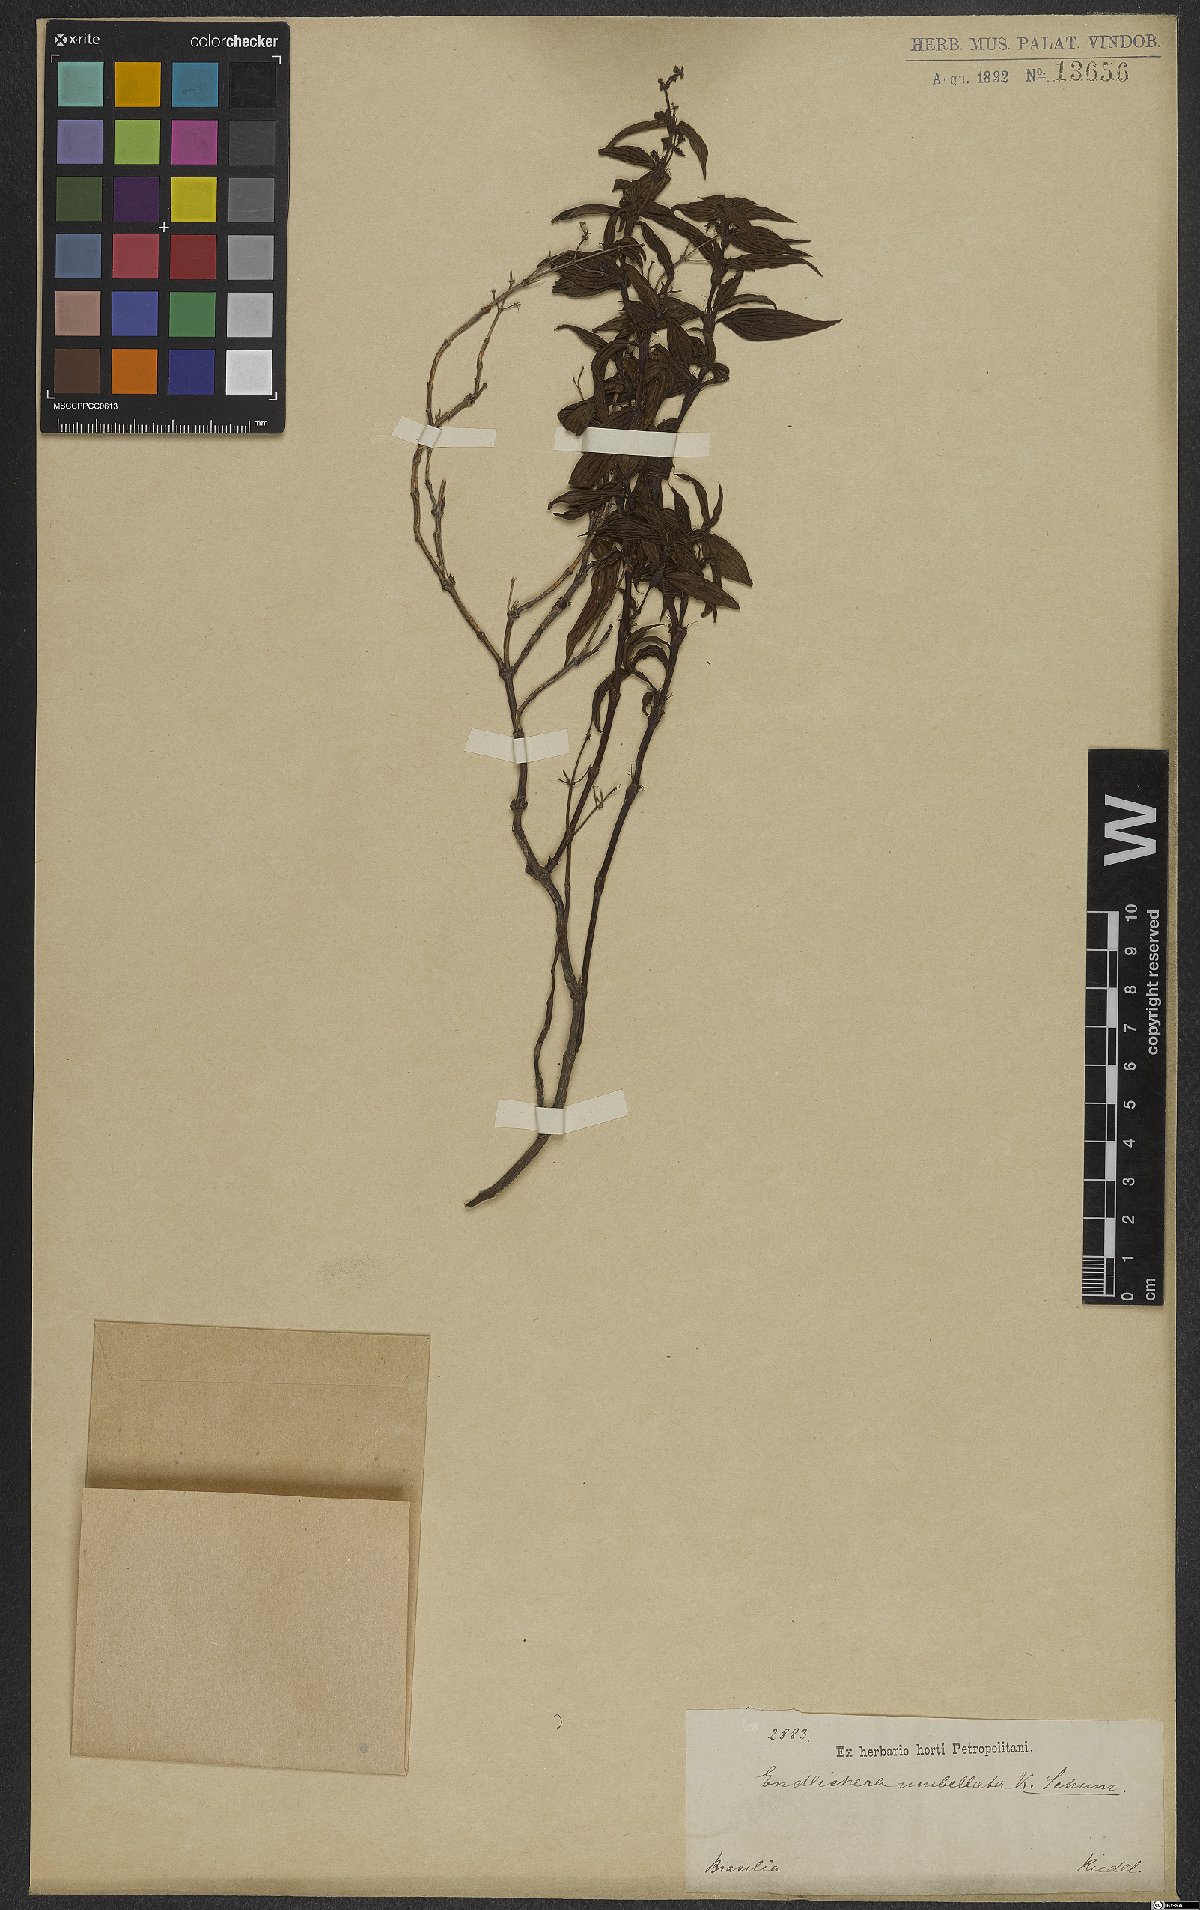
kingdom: Plantae
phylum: Tracheophyta
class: Magnoliopsida
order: Gentianales
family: Rubiaceae
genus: Emmeorhiza
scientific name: Emmeorhiza umbellata
